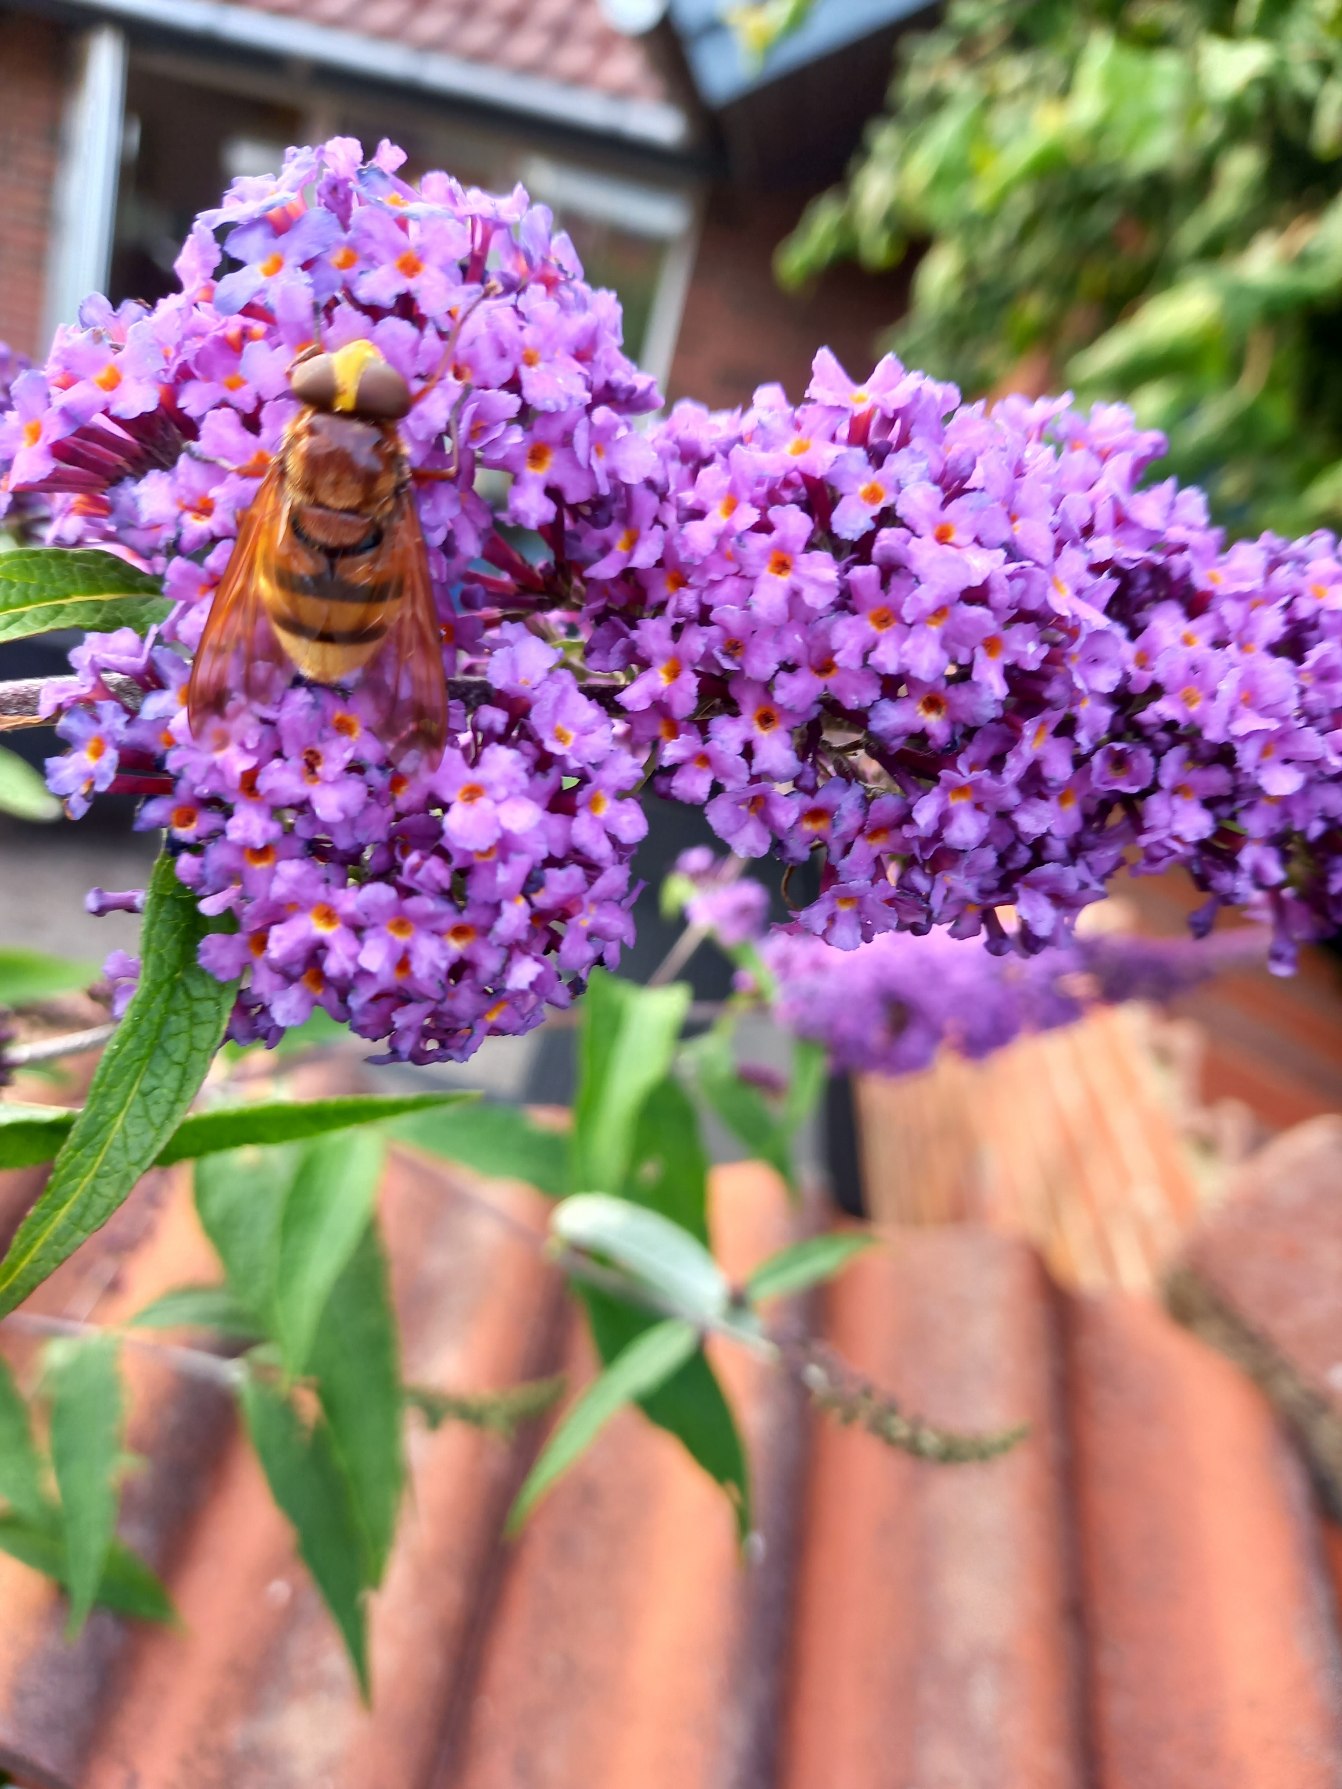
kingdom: Animalia
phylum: Arthropoda
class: Insecta
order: Diptera
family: Syrphidae
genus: Volucella
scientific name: Volucella zonaria
